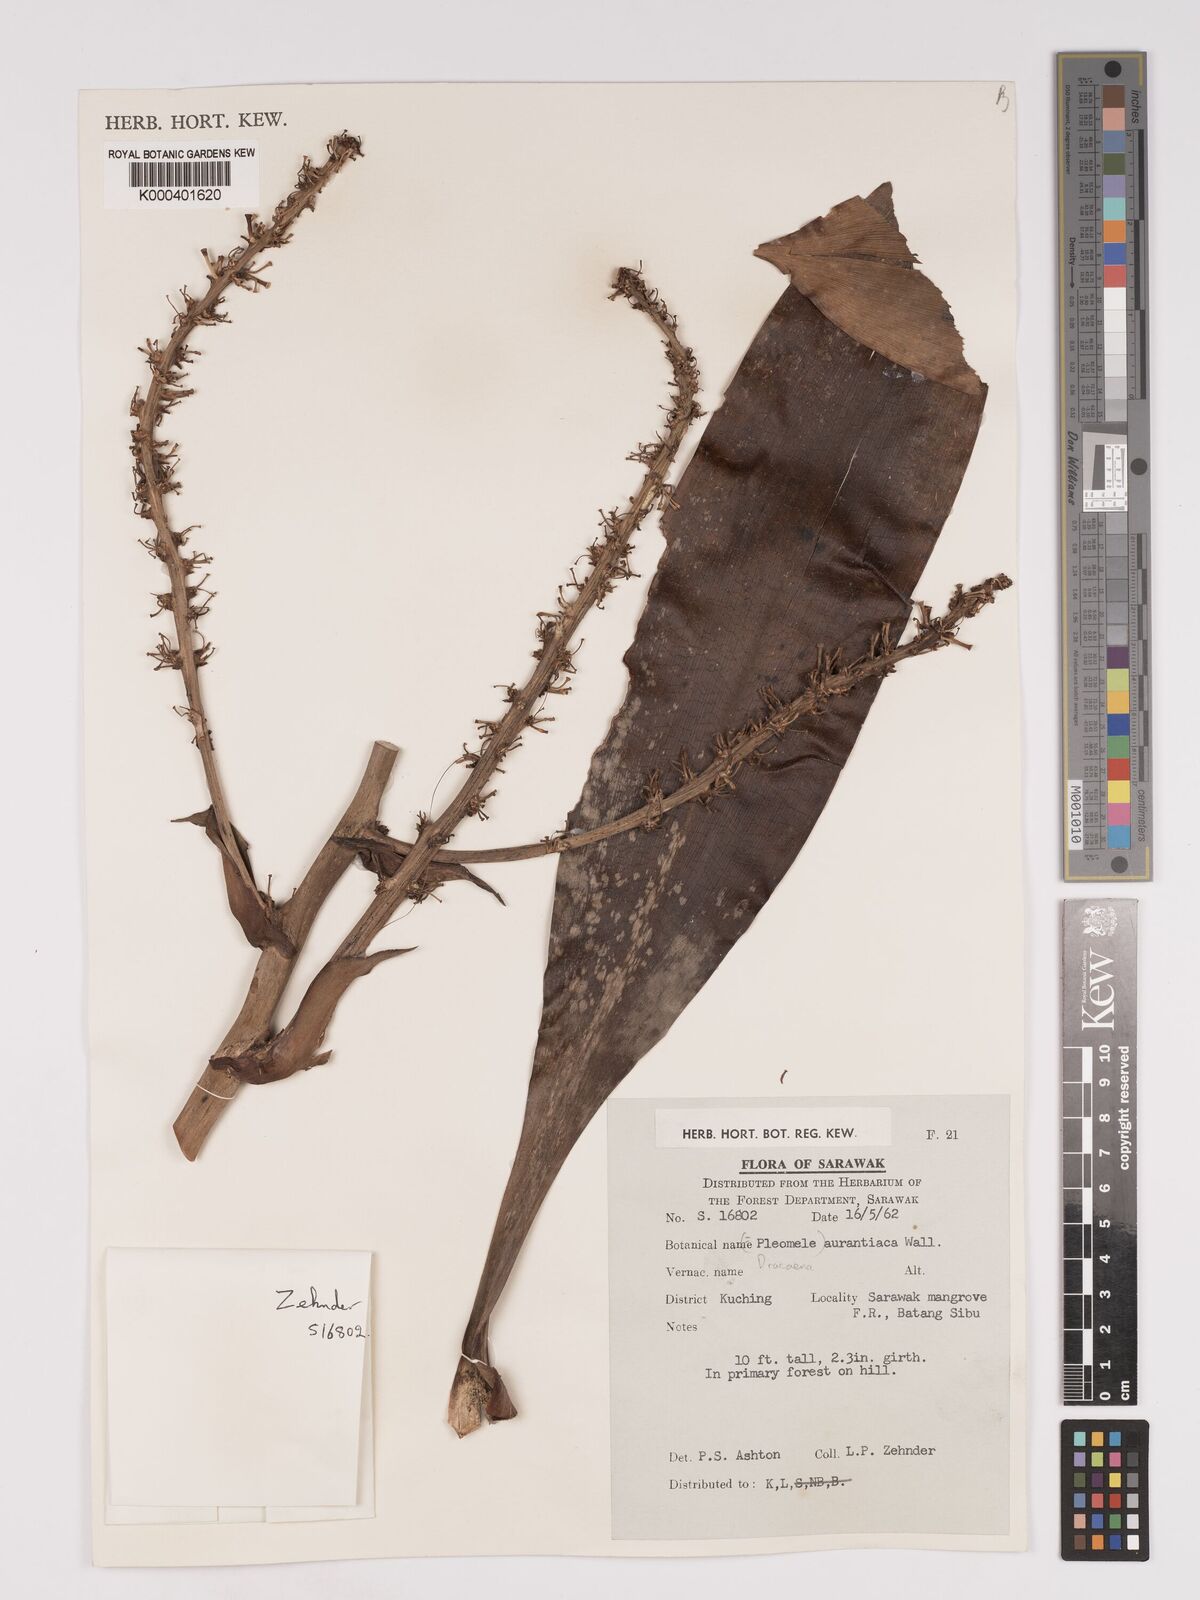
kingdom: Plantae
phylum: Tracheophyta
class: Liliopsida
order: Asparagales
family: Asparagaceae
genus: Dracaena
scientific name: Dracaena
